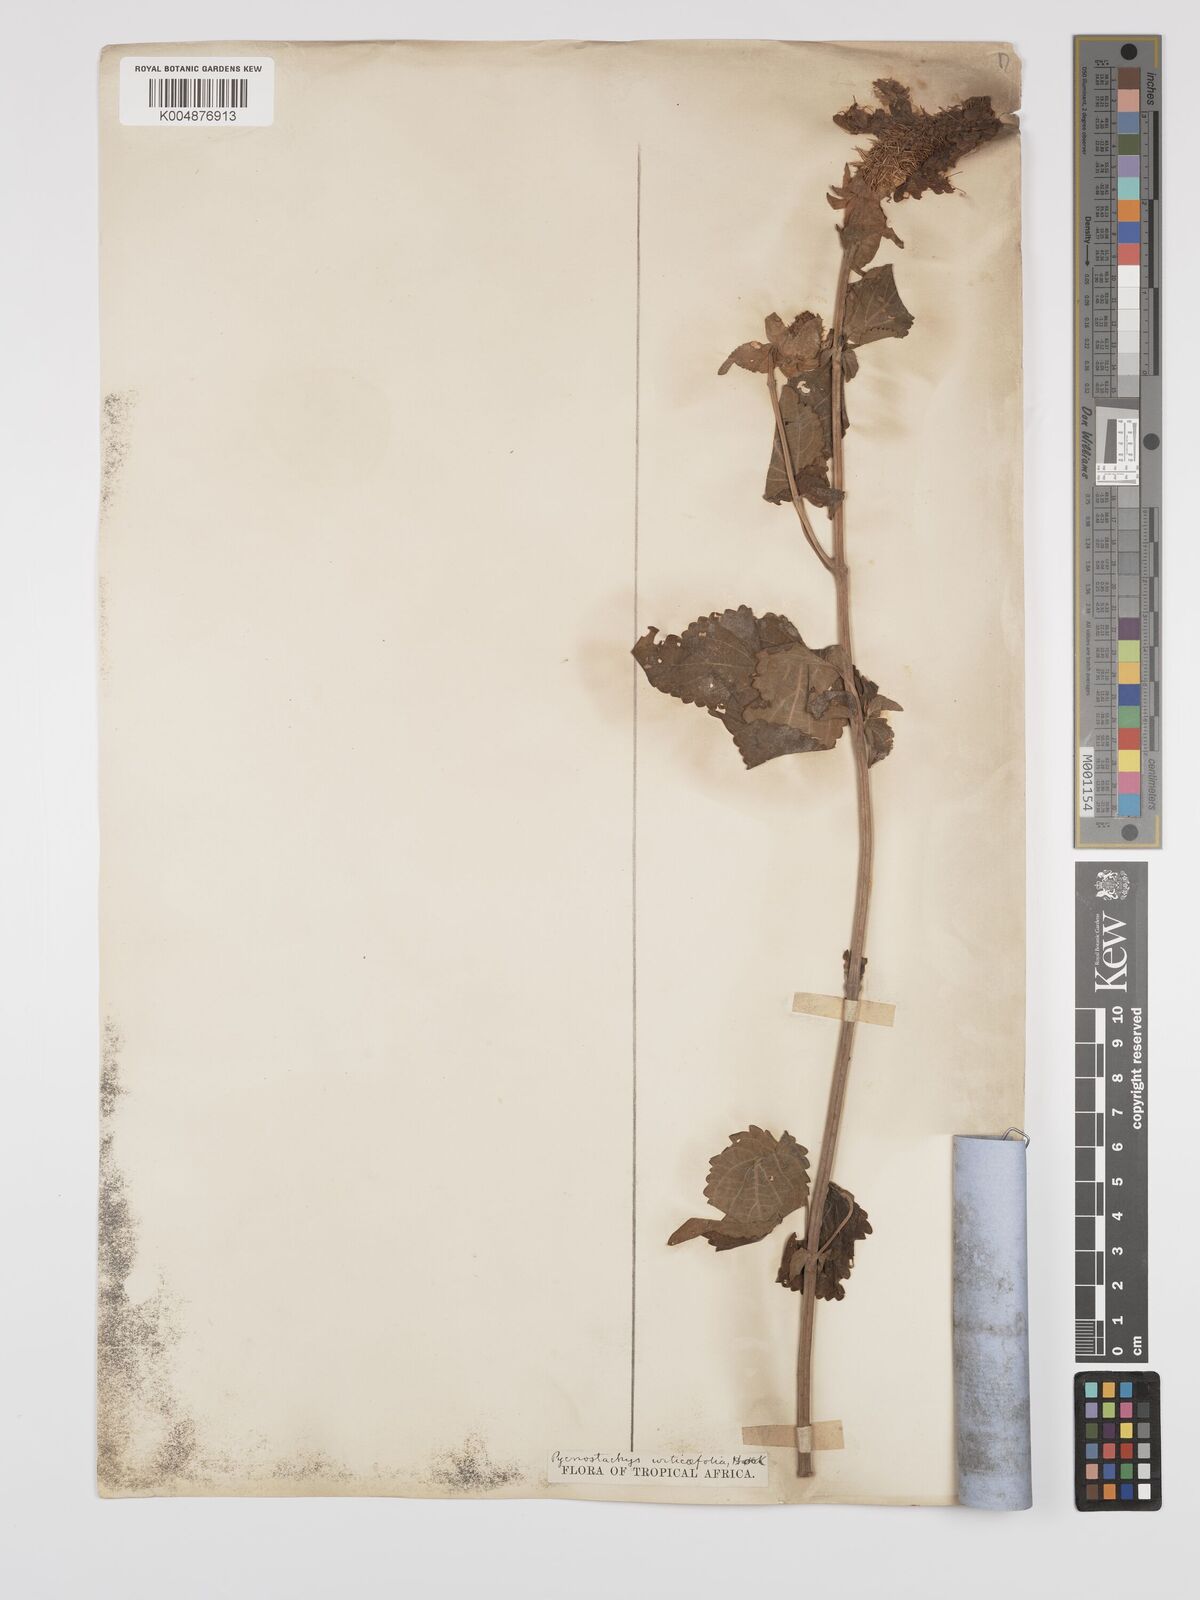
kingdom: Plantae
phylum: Tracheophyta
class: Magnoliopsida
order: Lamiales
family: Lamiaceae
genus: Coleus
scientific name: Coleus livingstonei
